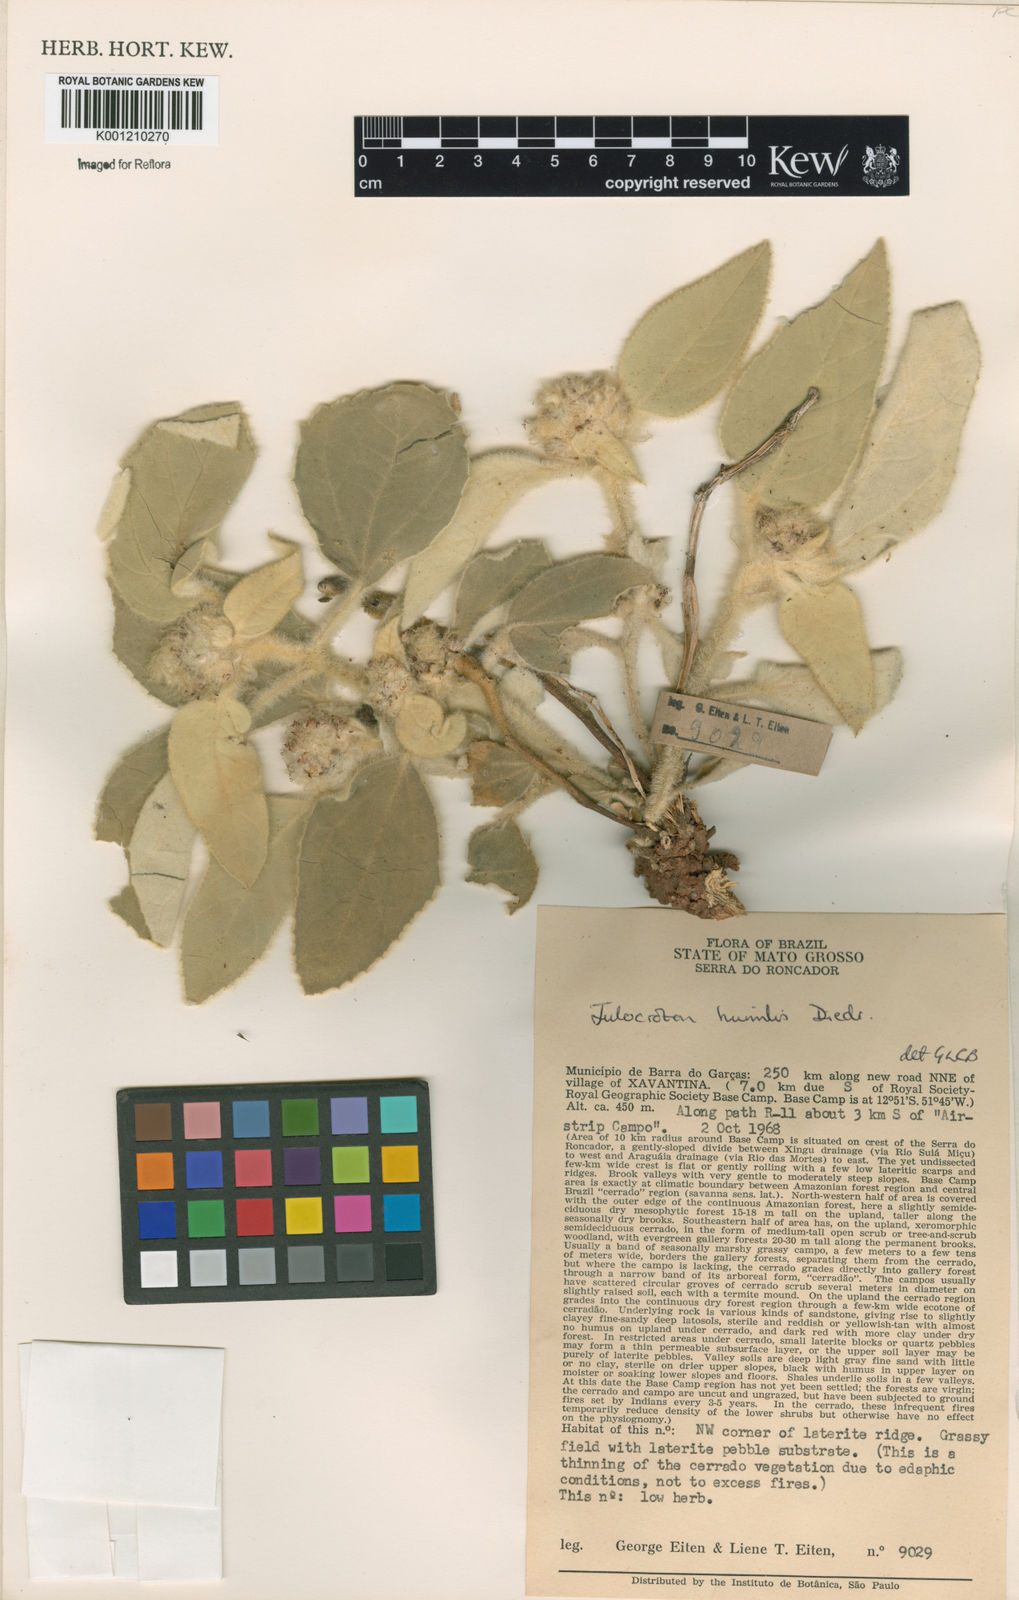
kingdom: Plantae
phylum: Tracheophyta
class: Magnoliopsida
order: Malpighiales
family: Euphorbiaceae
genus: Croton
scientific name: Croton solanaceus
